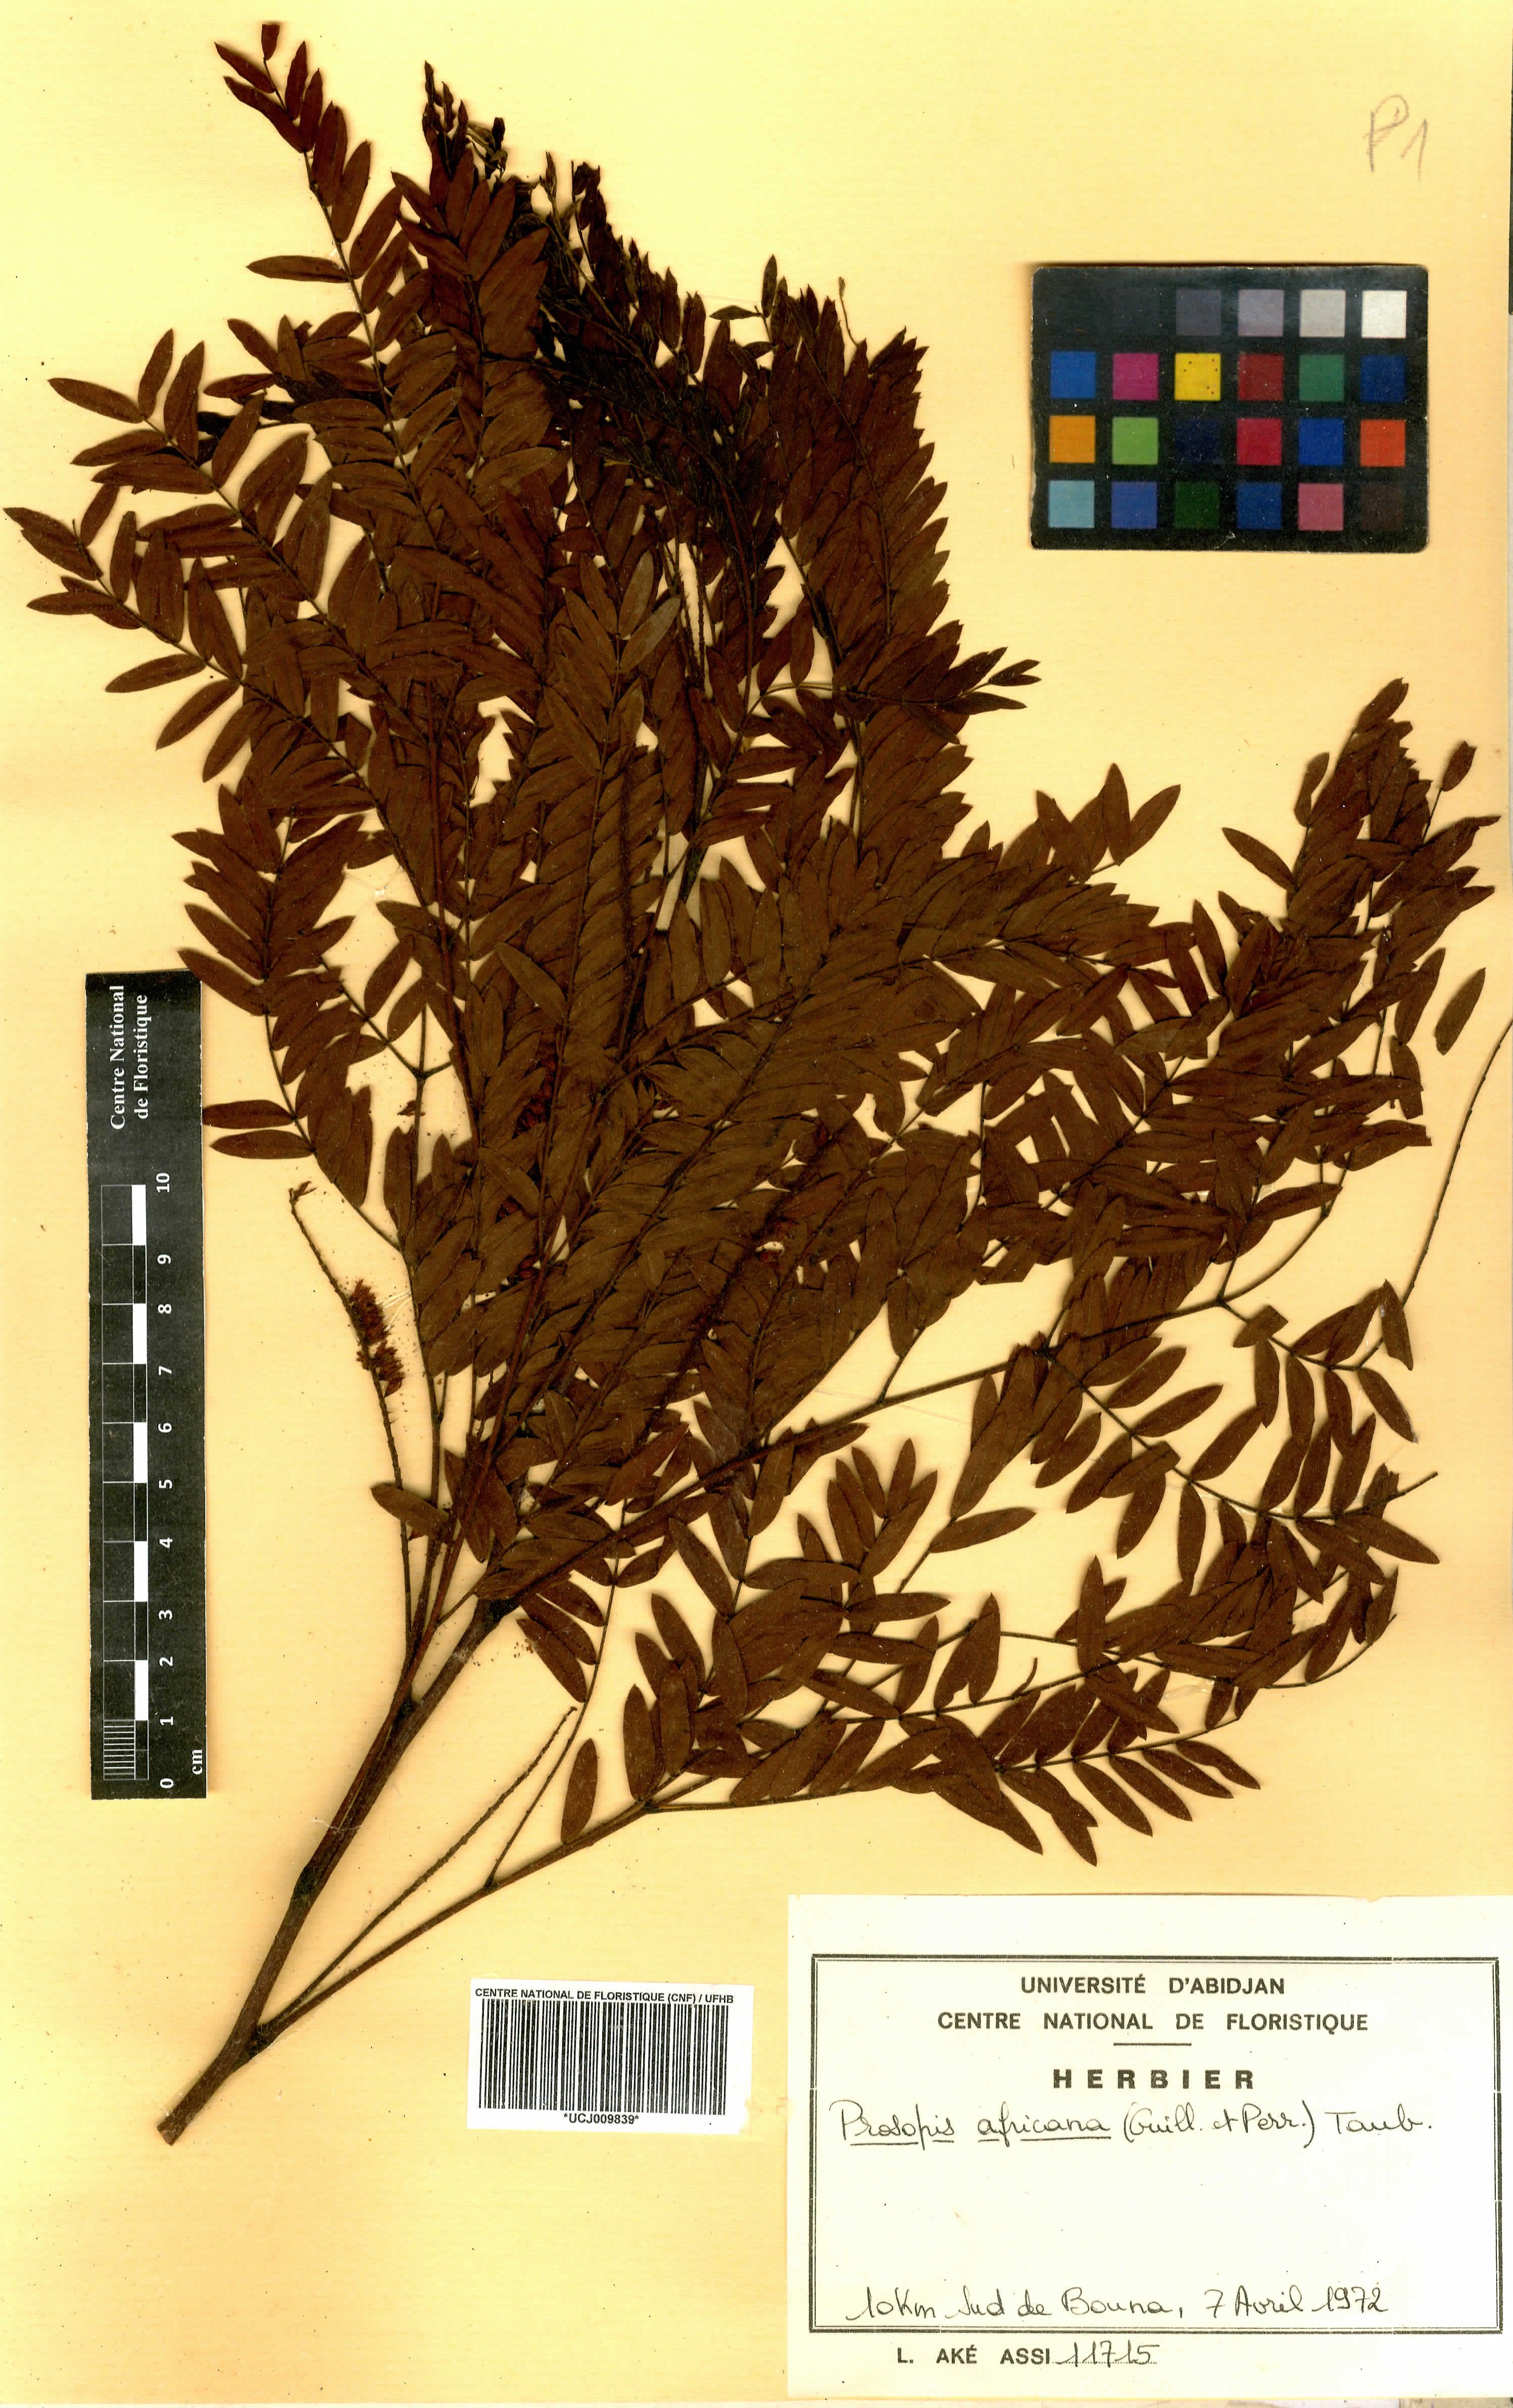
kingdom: Plantae
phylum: Tracheophyta
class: Magnoliopsida
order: Fabales
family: Fabaceae
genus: Prosopis
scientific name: Prosopis africana
